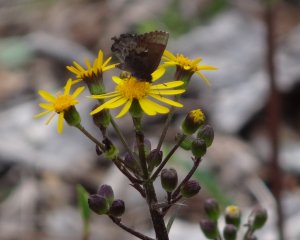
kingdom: Animalia
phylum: Arthropoda
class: Insecta
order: Lepidoptera
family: Lycaenidae
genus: Incisalia
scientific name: Incisalia henrici
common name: Henry's Elfin
